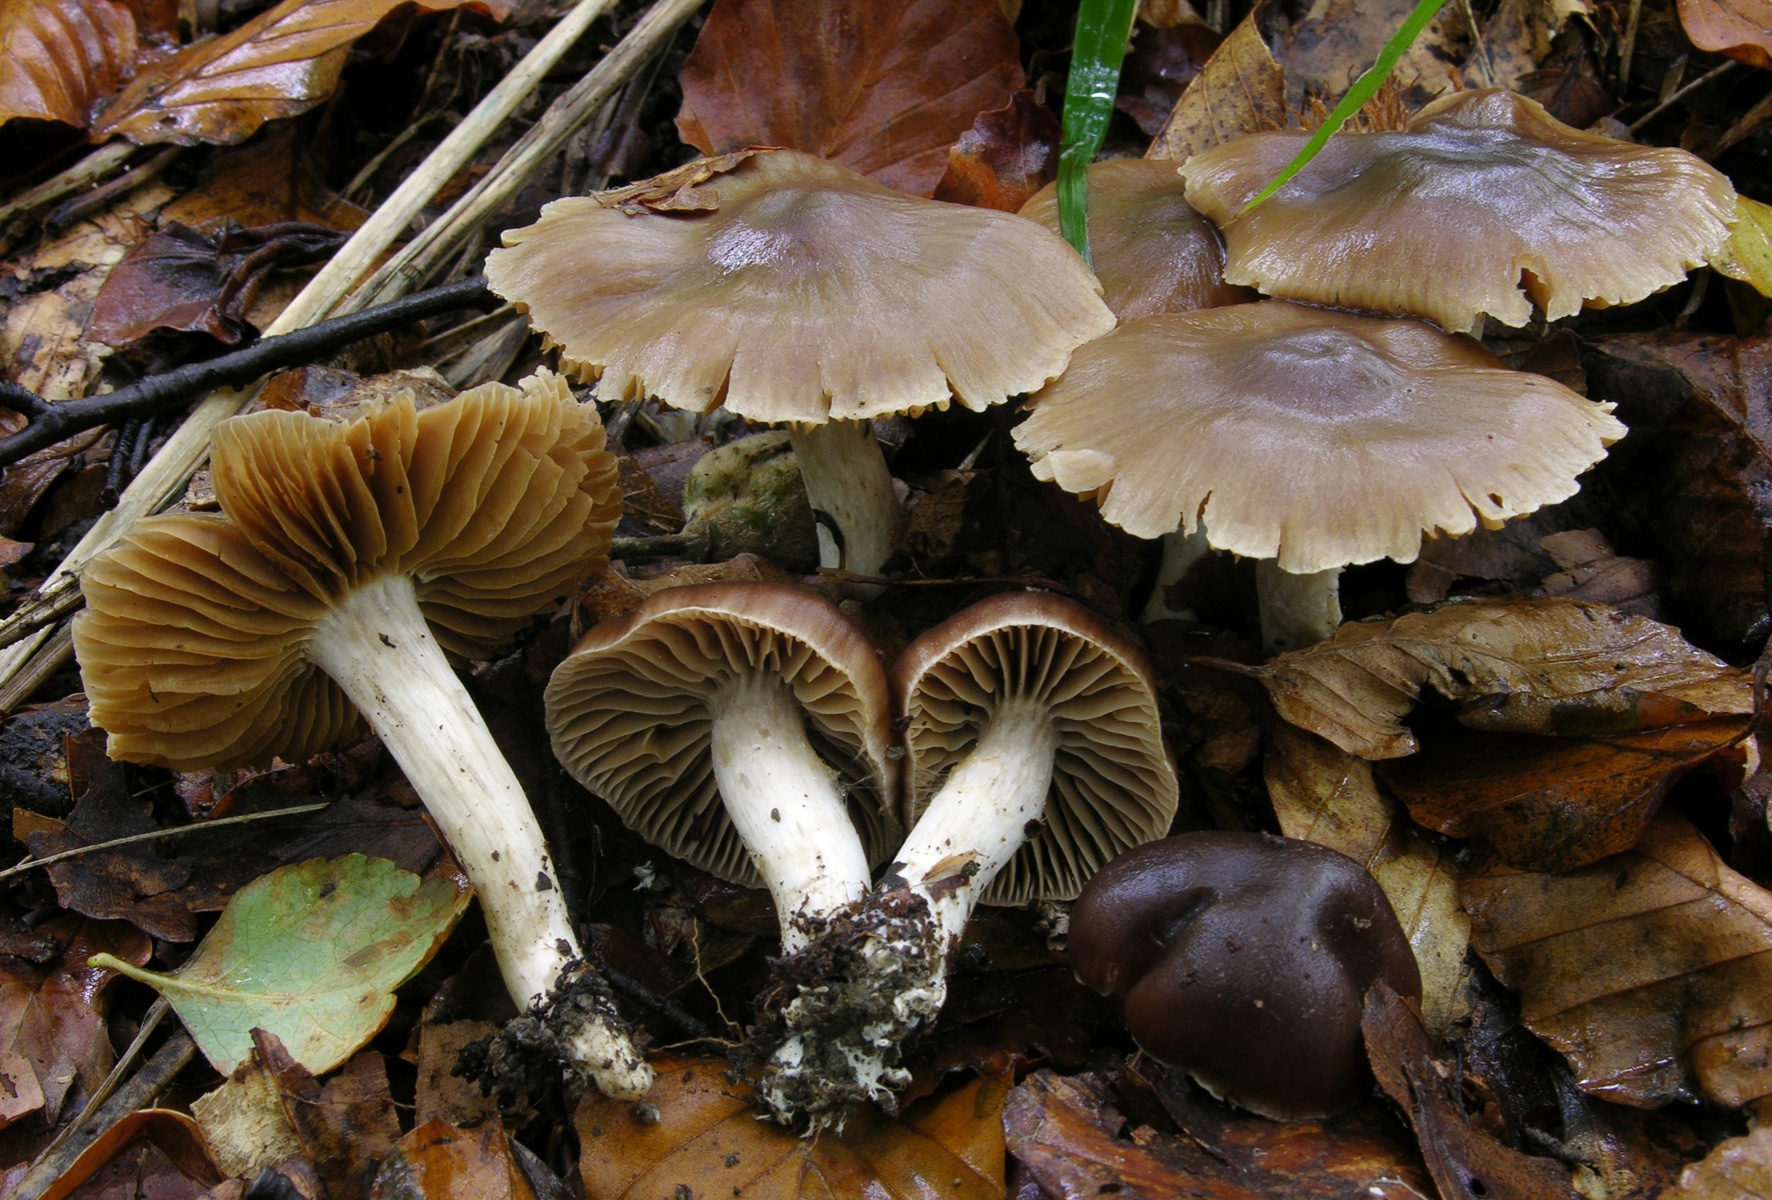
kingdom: Fungi
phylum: Basidiomycota
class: Agaricomycetes
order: Agaricales
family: Cortinariaceae
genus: Cortinarius
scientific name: Cortinarius fragrantior
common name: daddelbrun slørhat
